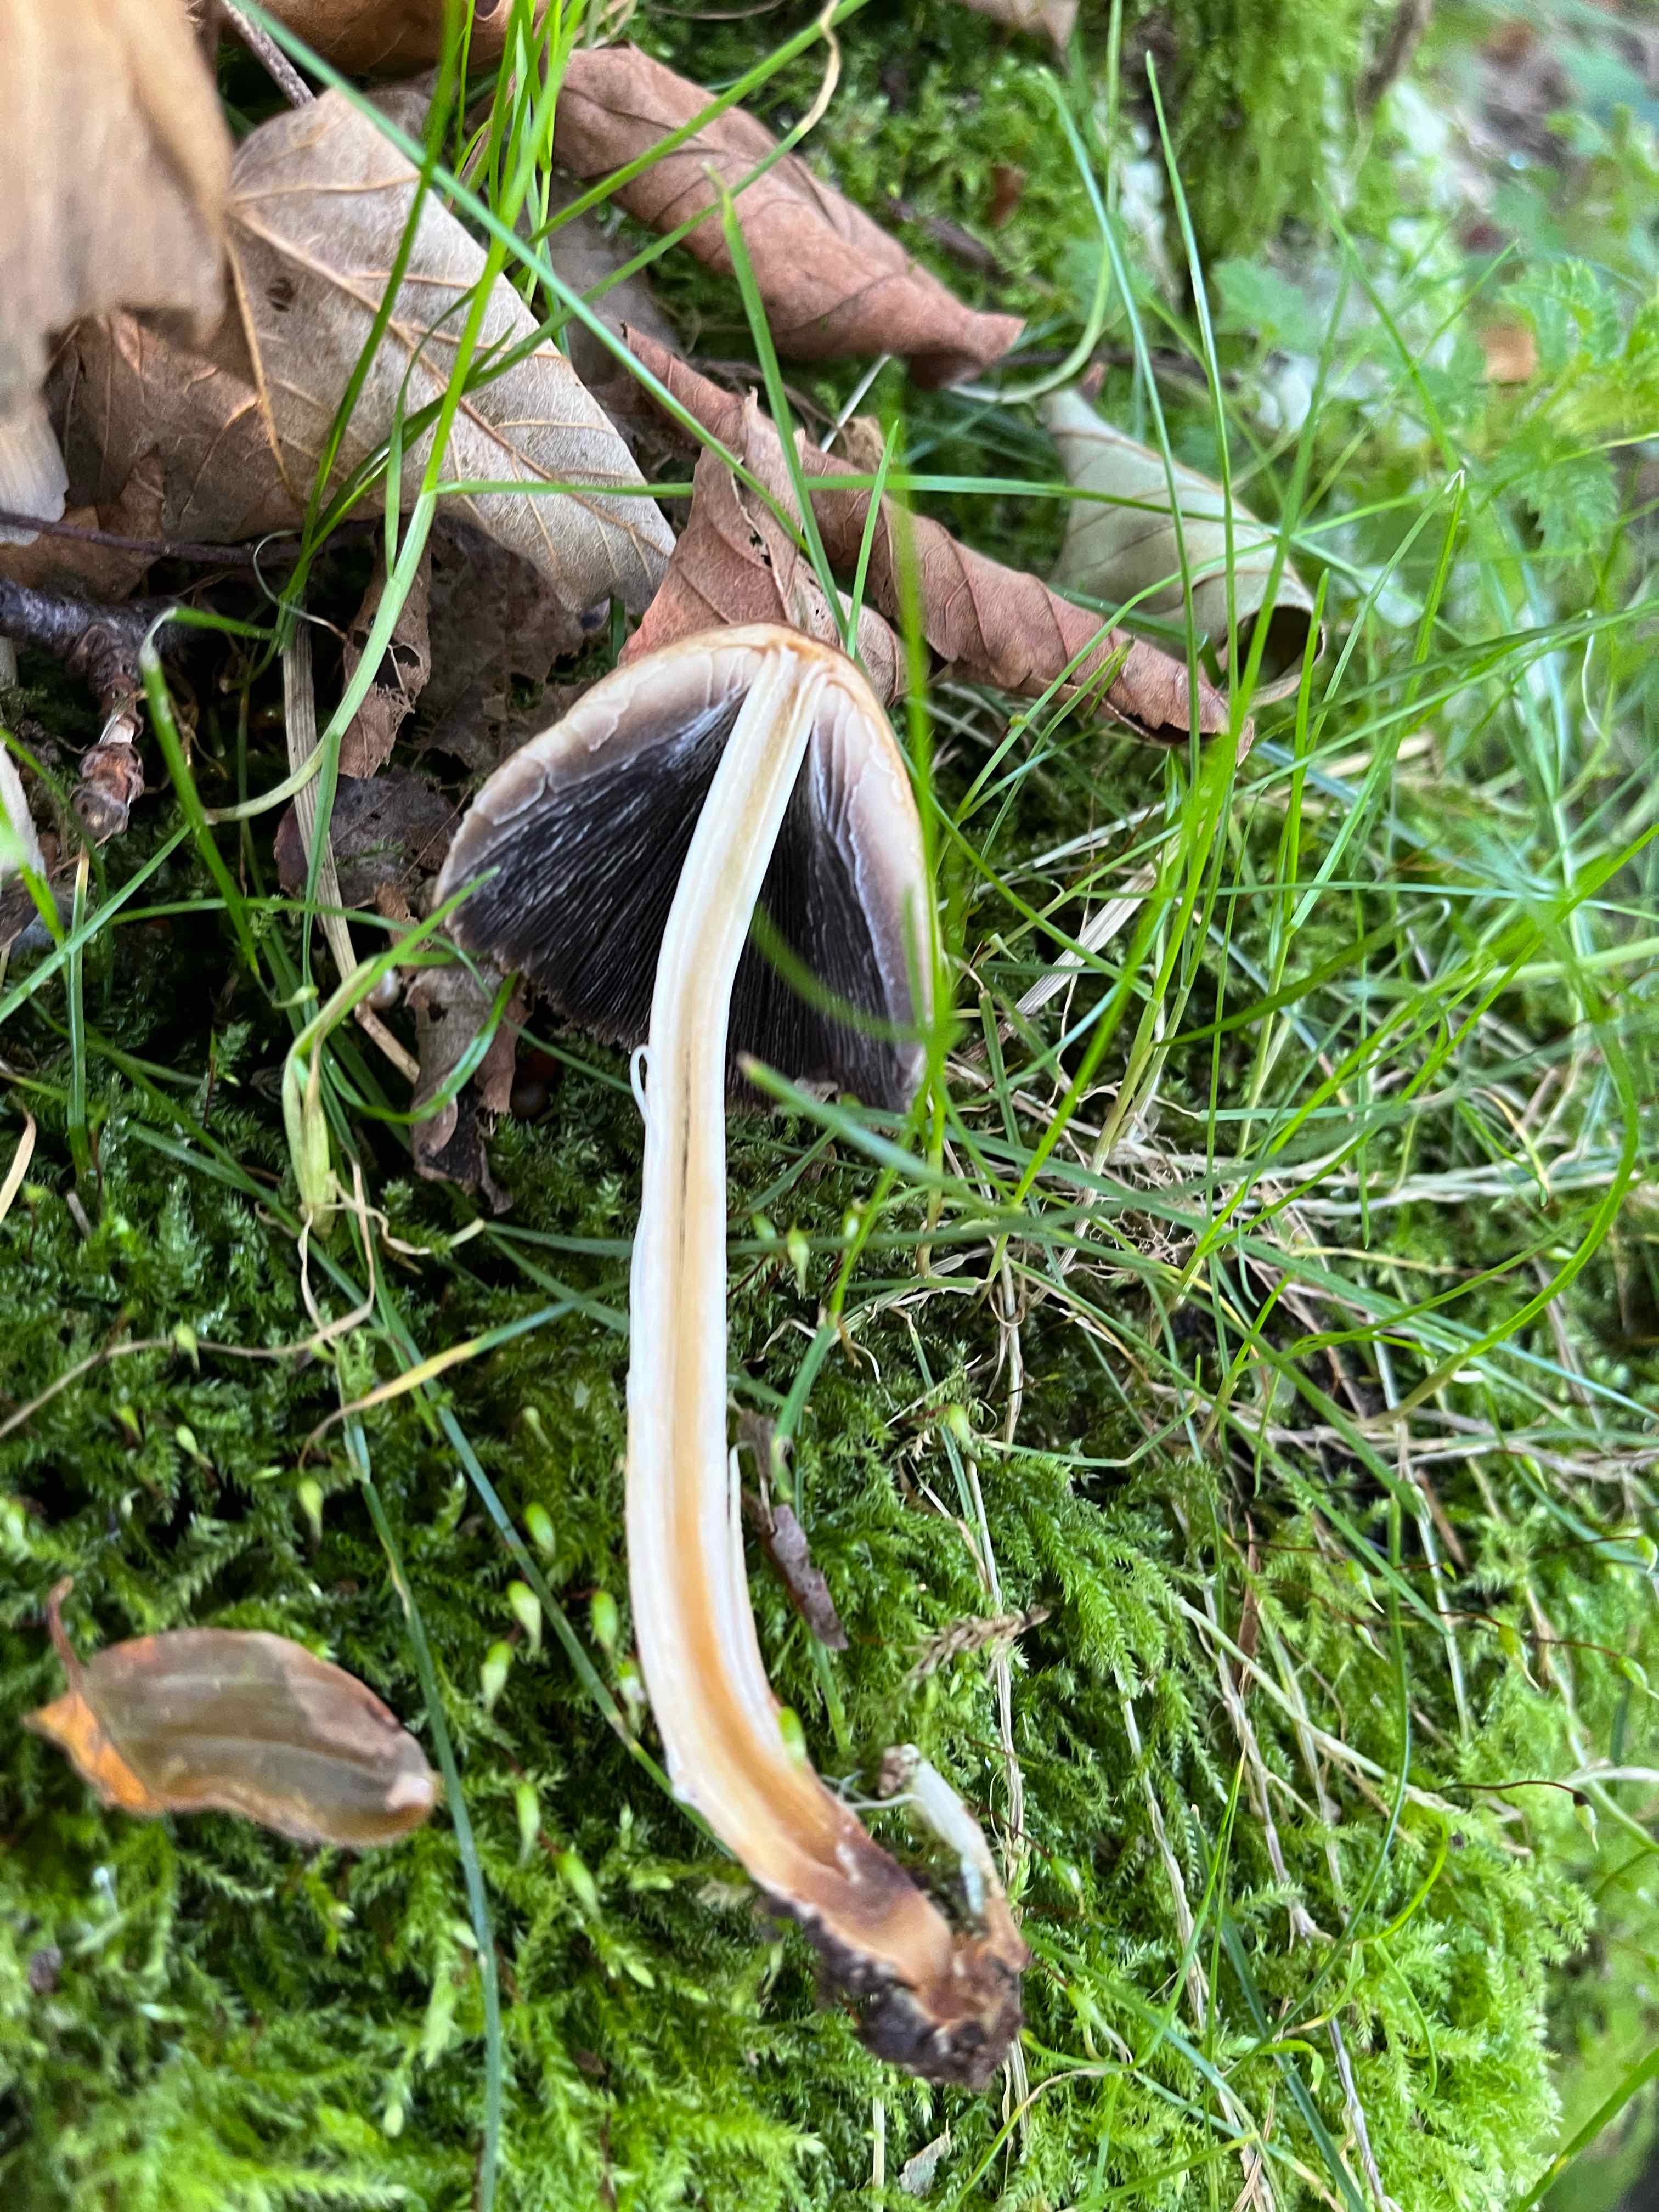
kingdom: Fungi
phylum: Basidiomycota
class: Agaricomycetes
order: Agaricales
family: Psathyrellaceae
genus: Coprinellus
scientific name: Coprinellus
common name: blækhat
